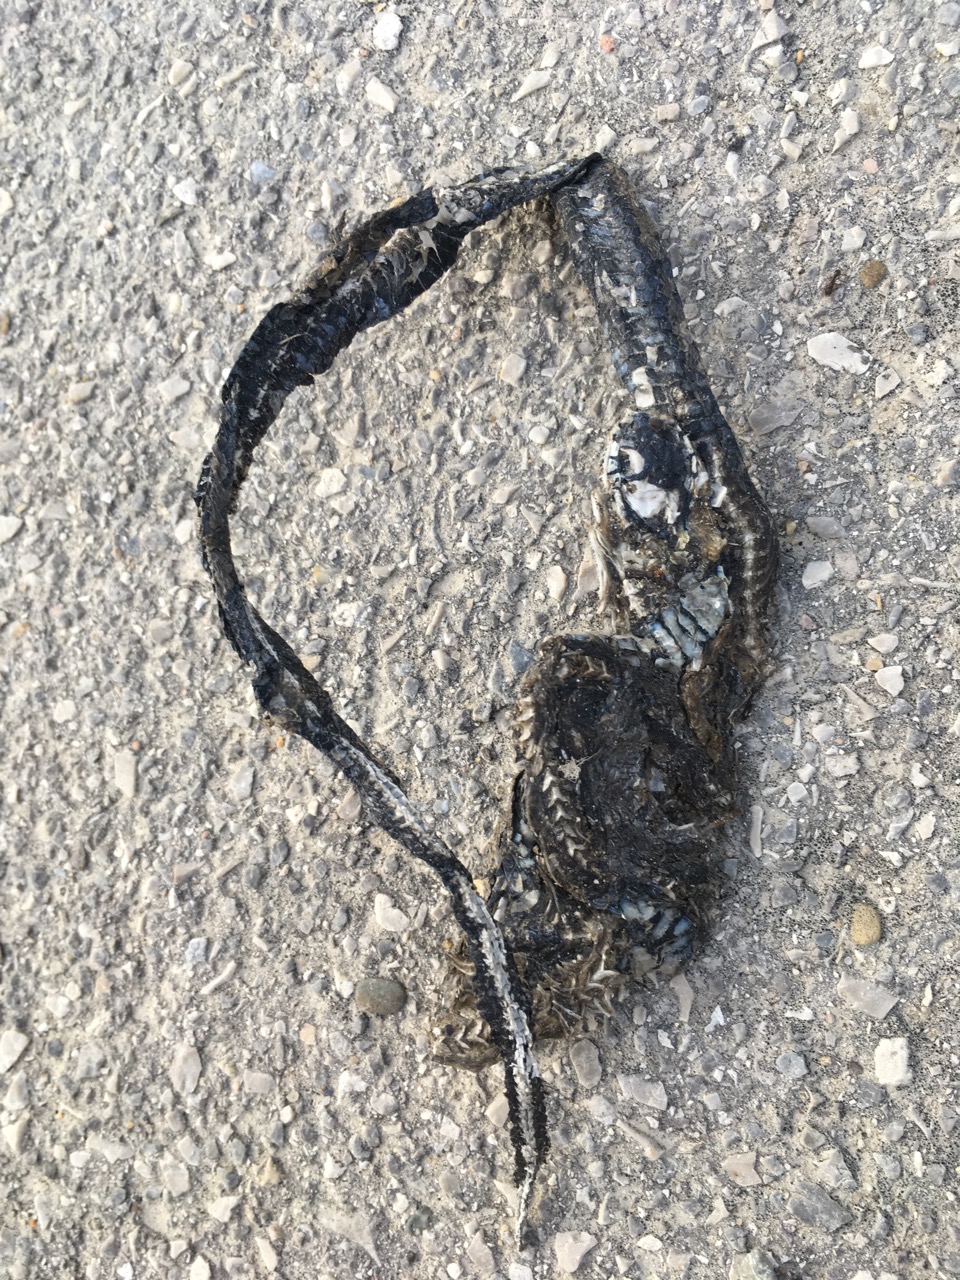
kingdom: Animalia
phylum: Chordata
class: Squamata
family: Colubridae
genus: Natrix
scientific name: Natrix natrix
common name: Grass snake
